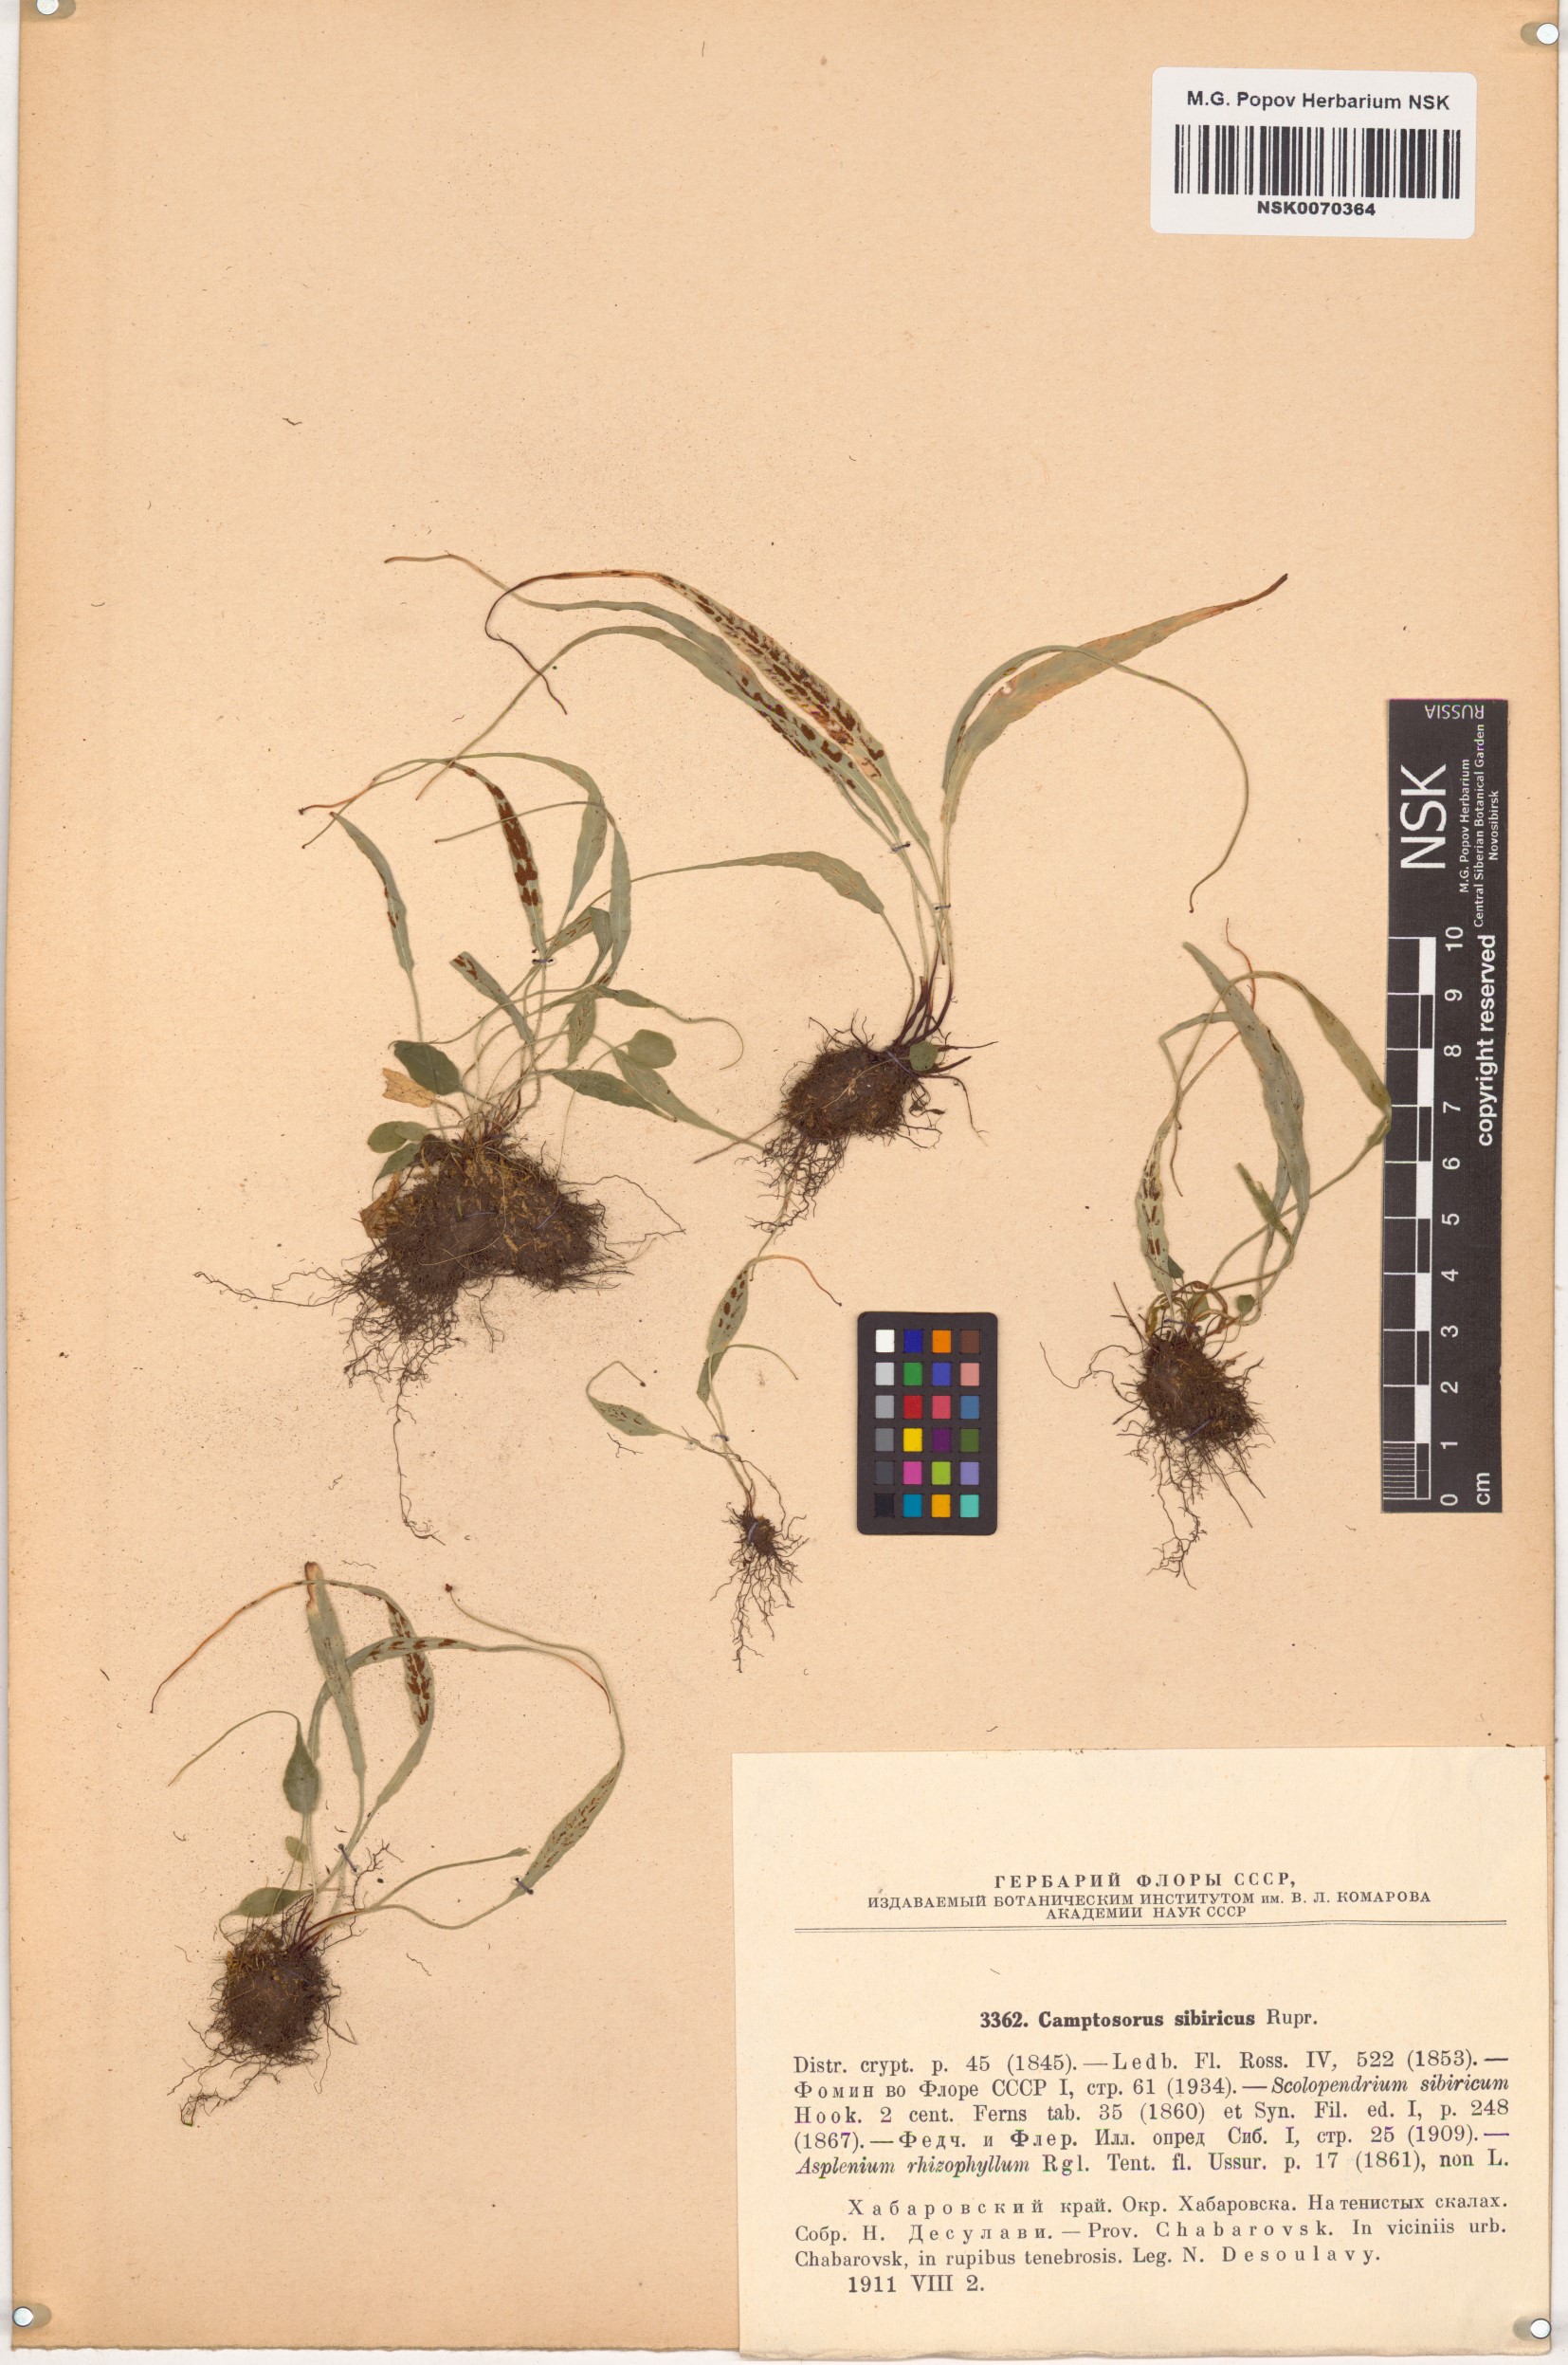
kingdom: Plantae
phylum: Tracheophyta
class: Polypodiopsida
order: Polypodiales
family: Aspleniaceae
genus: Asplenium
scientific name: Asplenium ruprechtii
